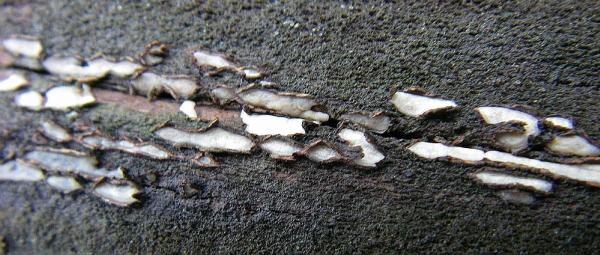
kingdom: Fungi
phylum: Ascomycota
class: Leotiomycetes
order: Chaetomellales
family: Marthamycetaceae
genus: Propolis
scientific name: Propolis farinosa
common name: almindelig vedsprængerskive
